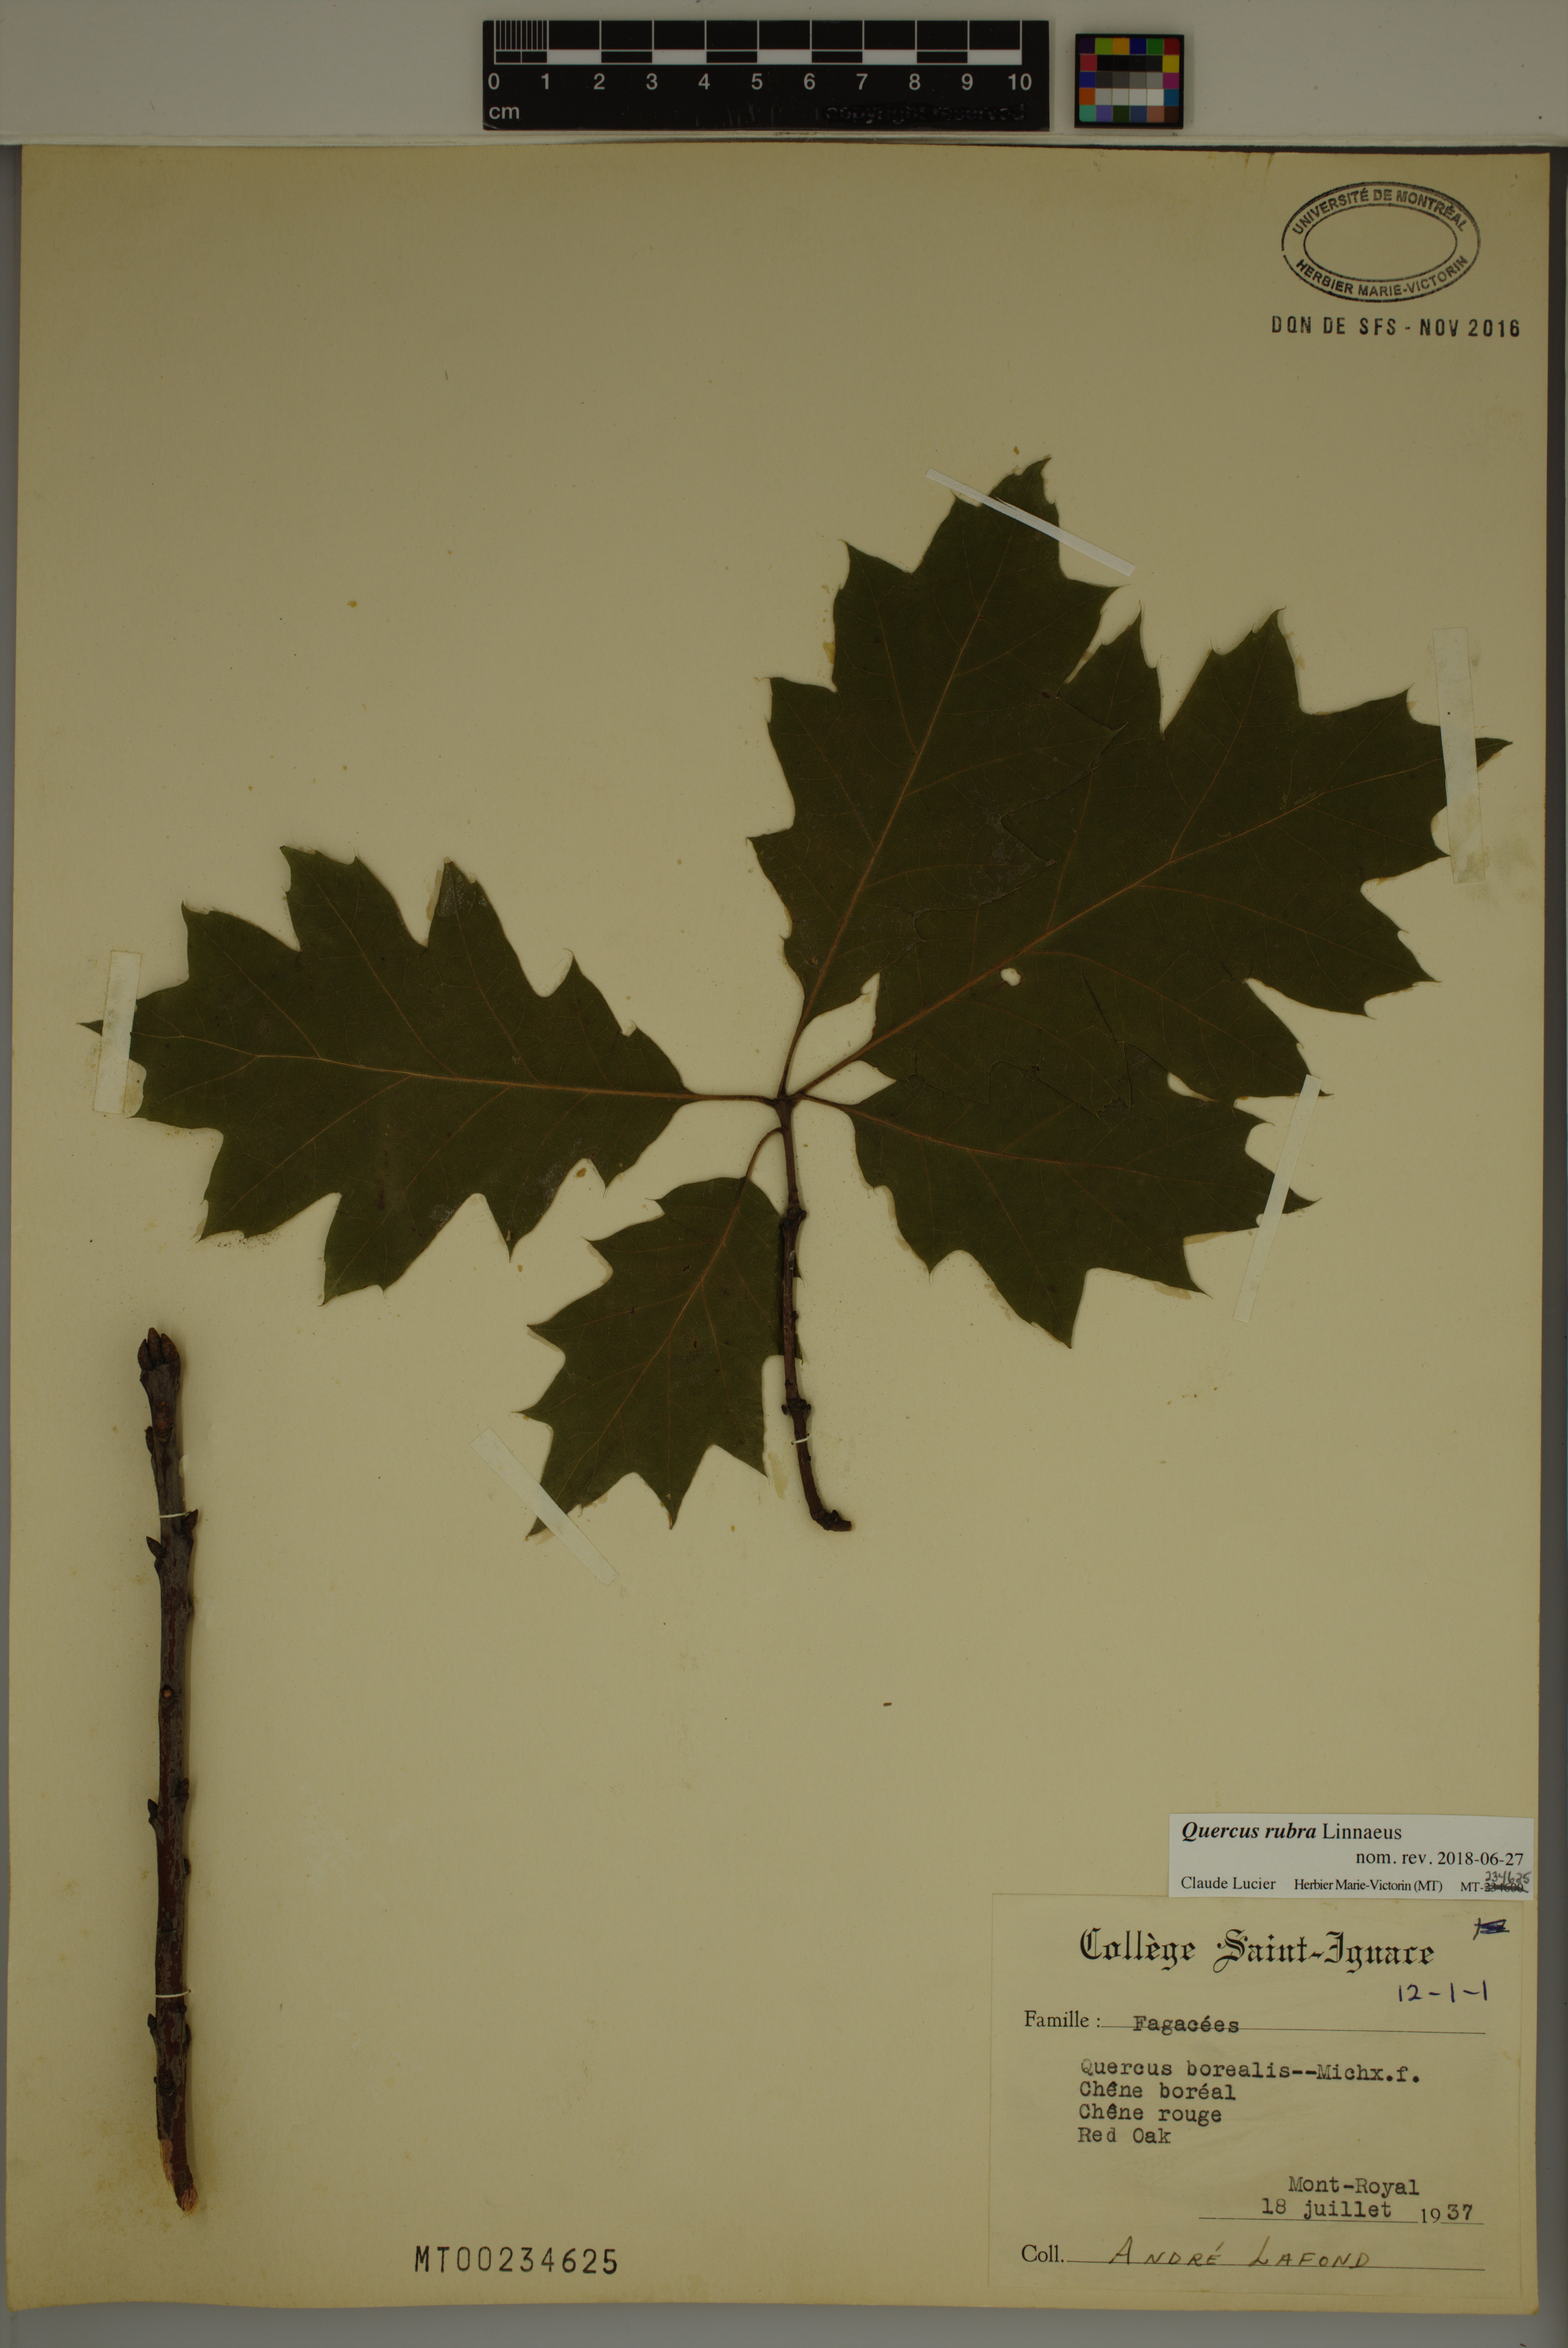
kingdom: Plantae
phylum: Tracheophyta
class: Magnoliopsida
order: Fagales
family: Fagaceae
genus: Quercus
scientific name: Quercus rubra
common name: Red oak
